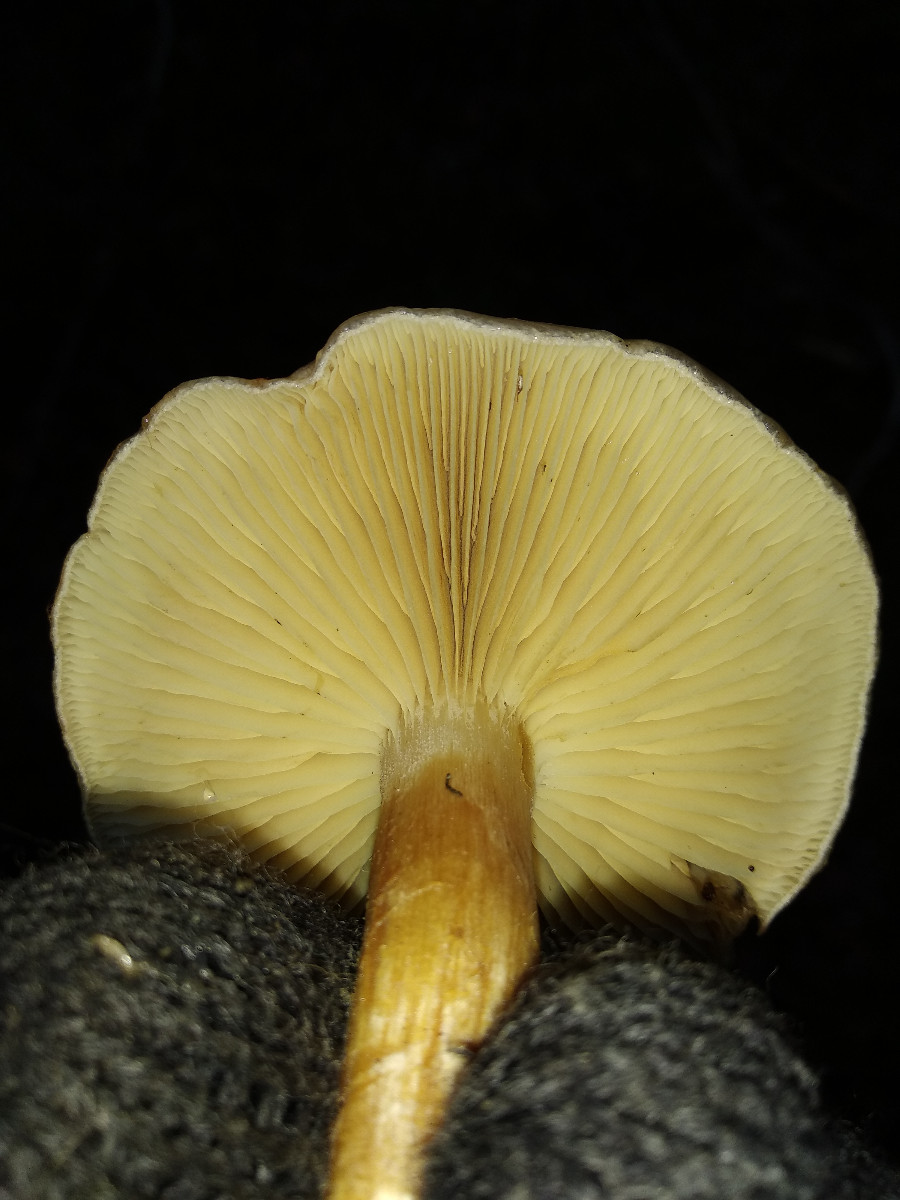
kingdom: Fungi
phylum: Basidiomycota
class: Agaricomycetes
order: Agaricales
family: Strophariaceae
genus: Pholiota
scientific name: Pholiota lenta
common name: løv-skælhat
